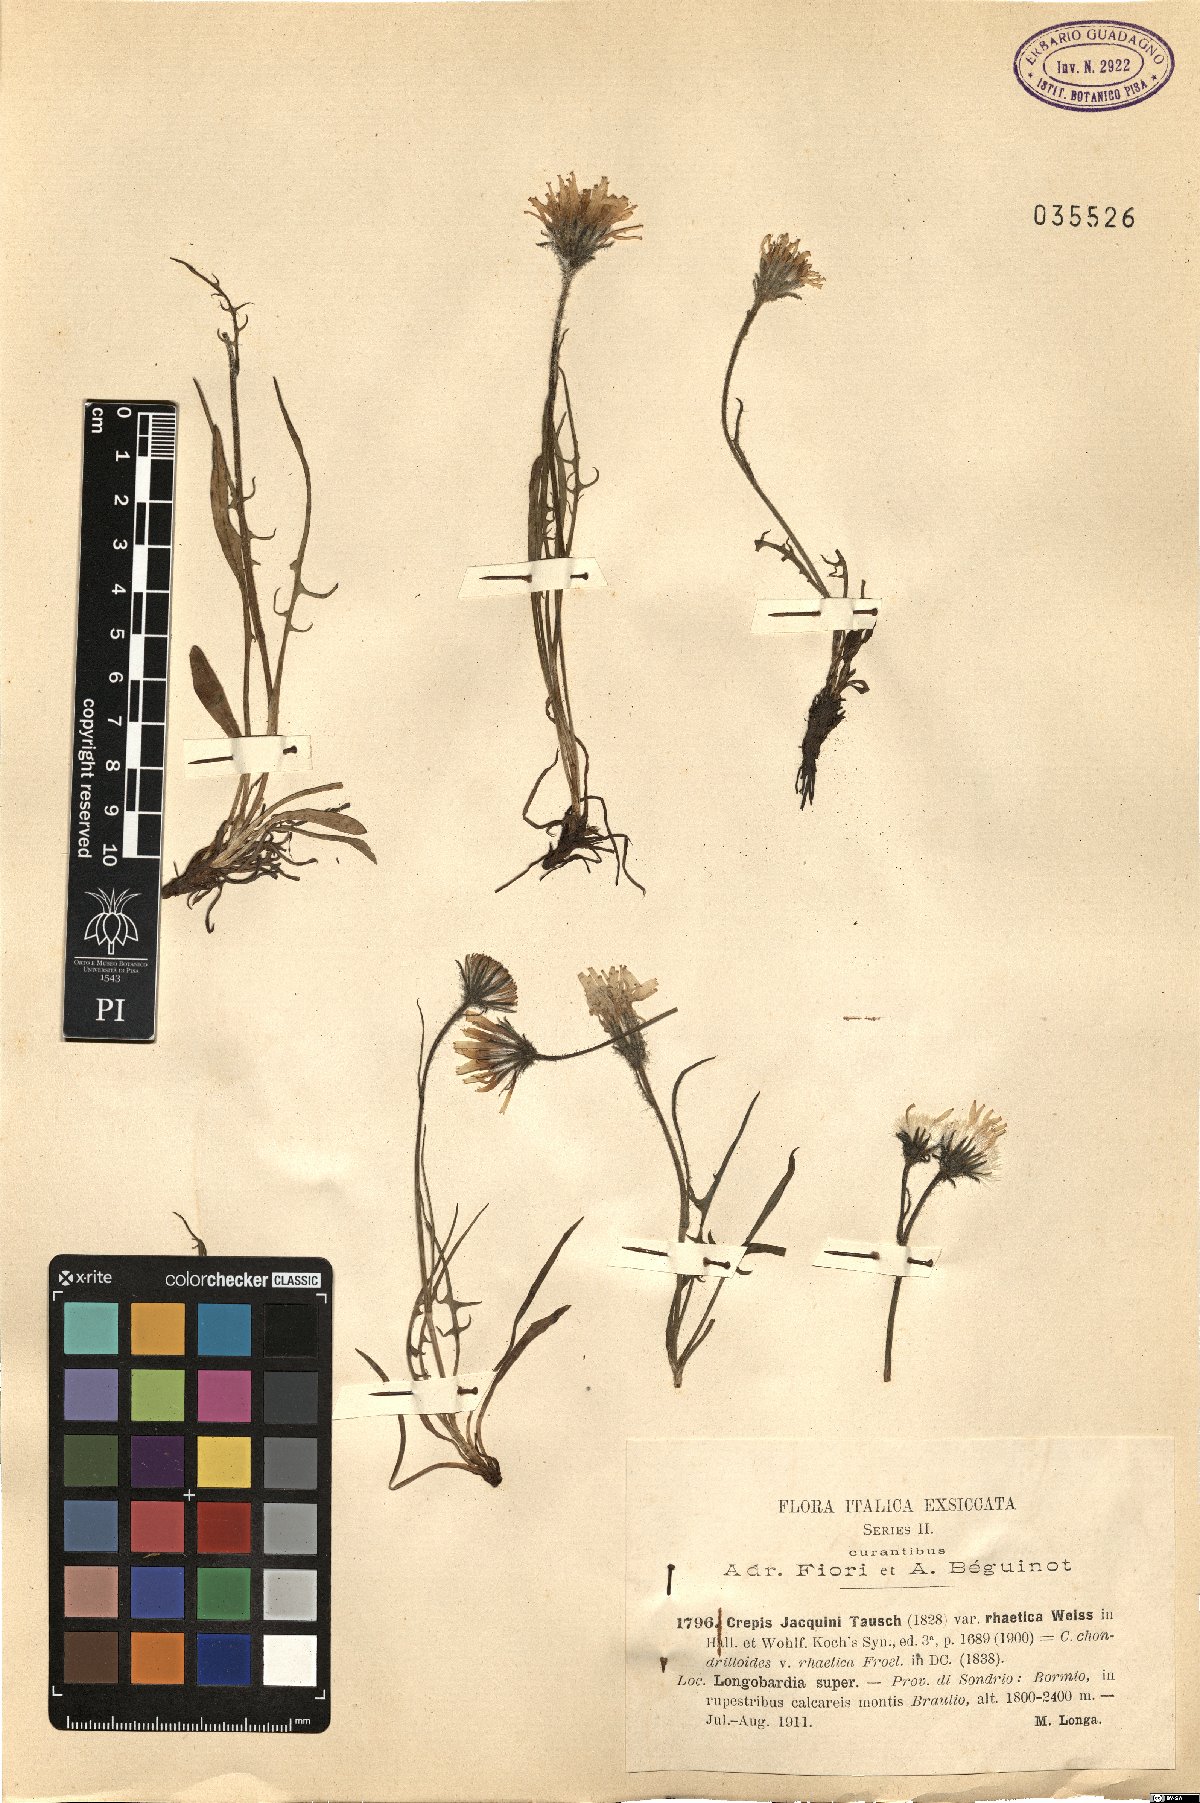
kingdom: Plantae
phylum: Tracheophyta
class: Magnoliopsida
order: Asterales
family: Asteraceae
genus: Crepis
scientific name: Crepis jacquinii
